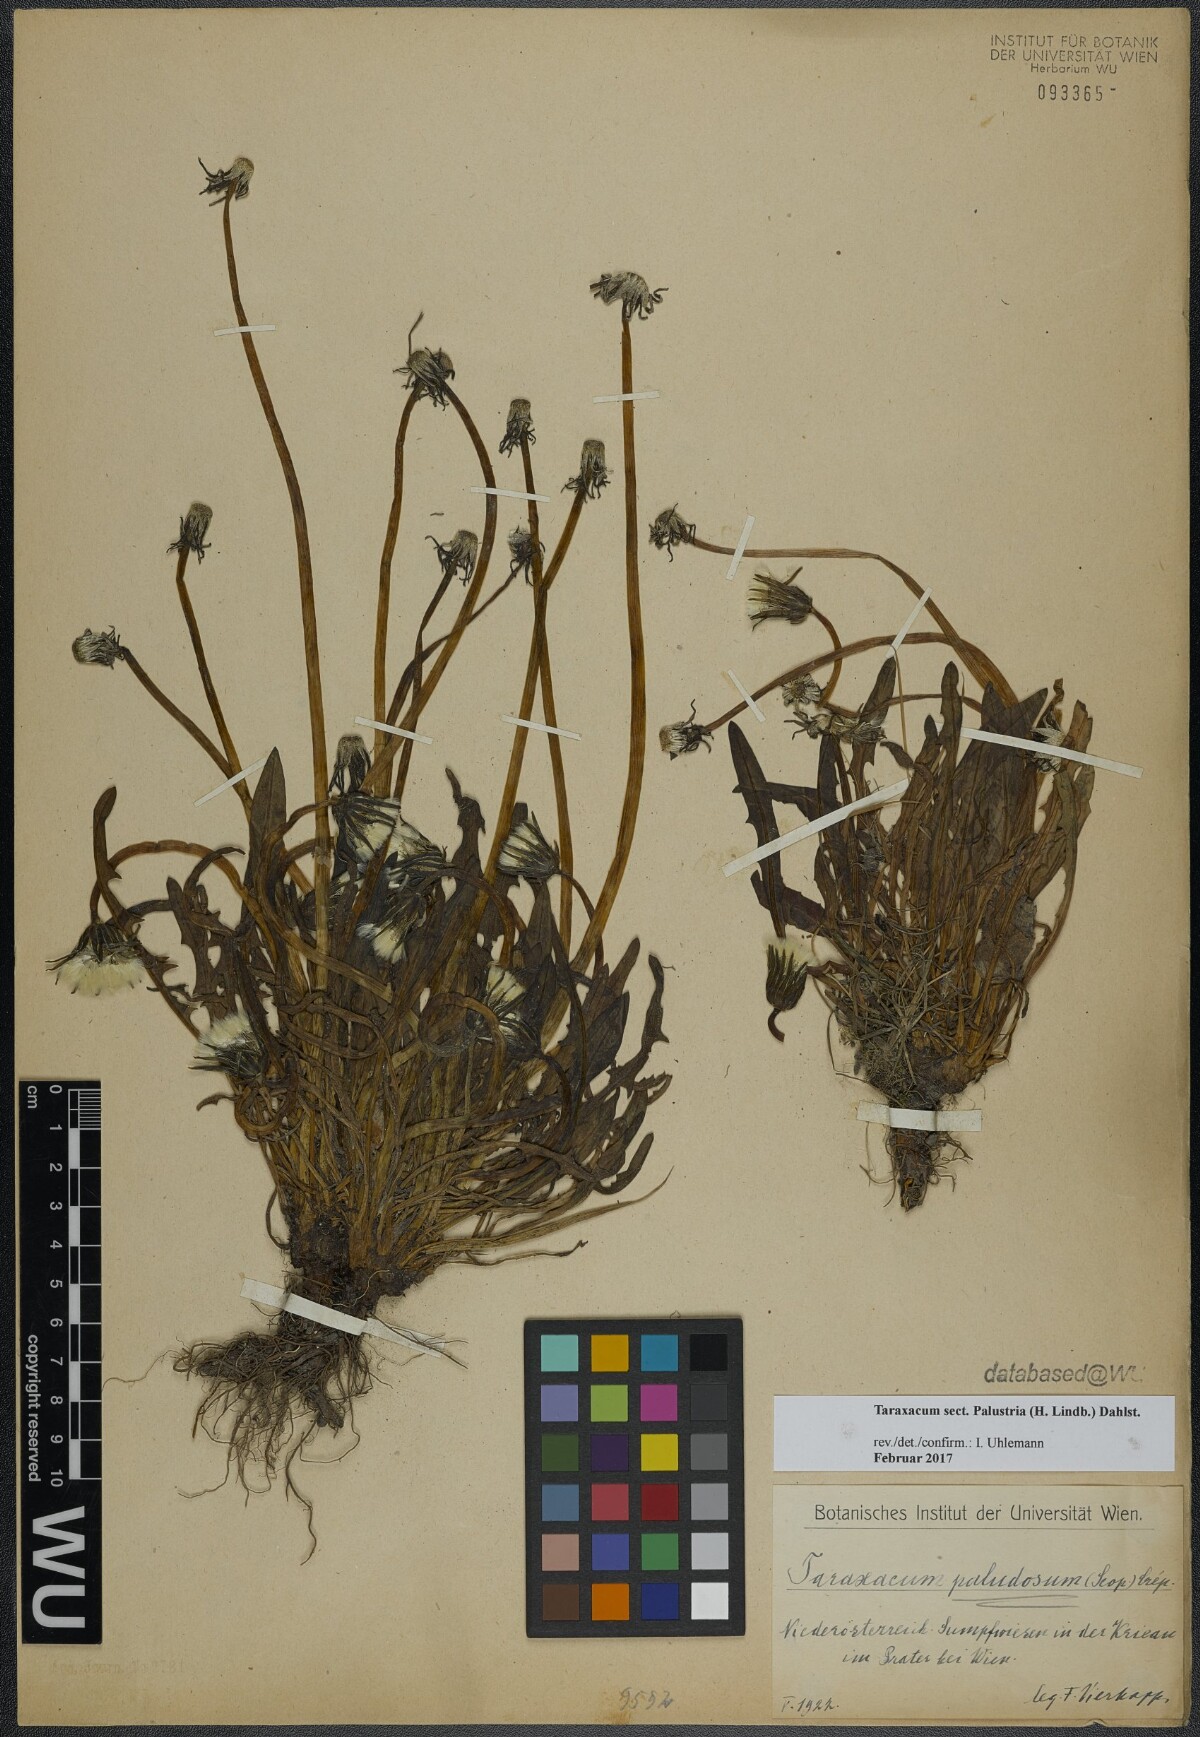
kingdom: Plantae
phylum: Tracheophyta
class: Magnoliopsida
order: Asterales
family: Asteraceae
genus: Taraxacum
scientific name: Taraxacum
